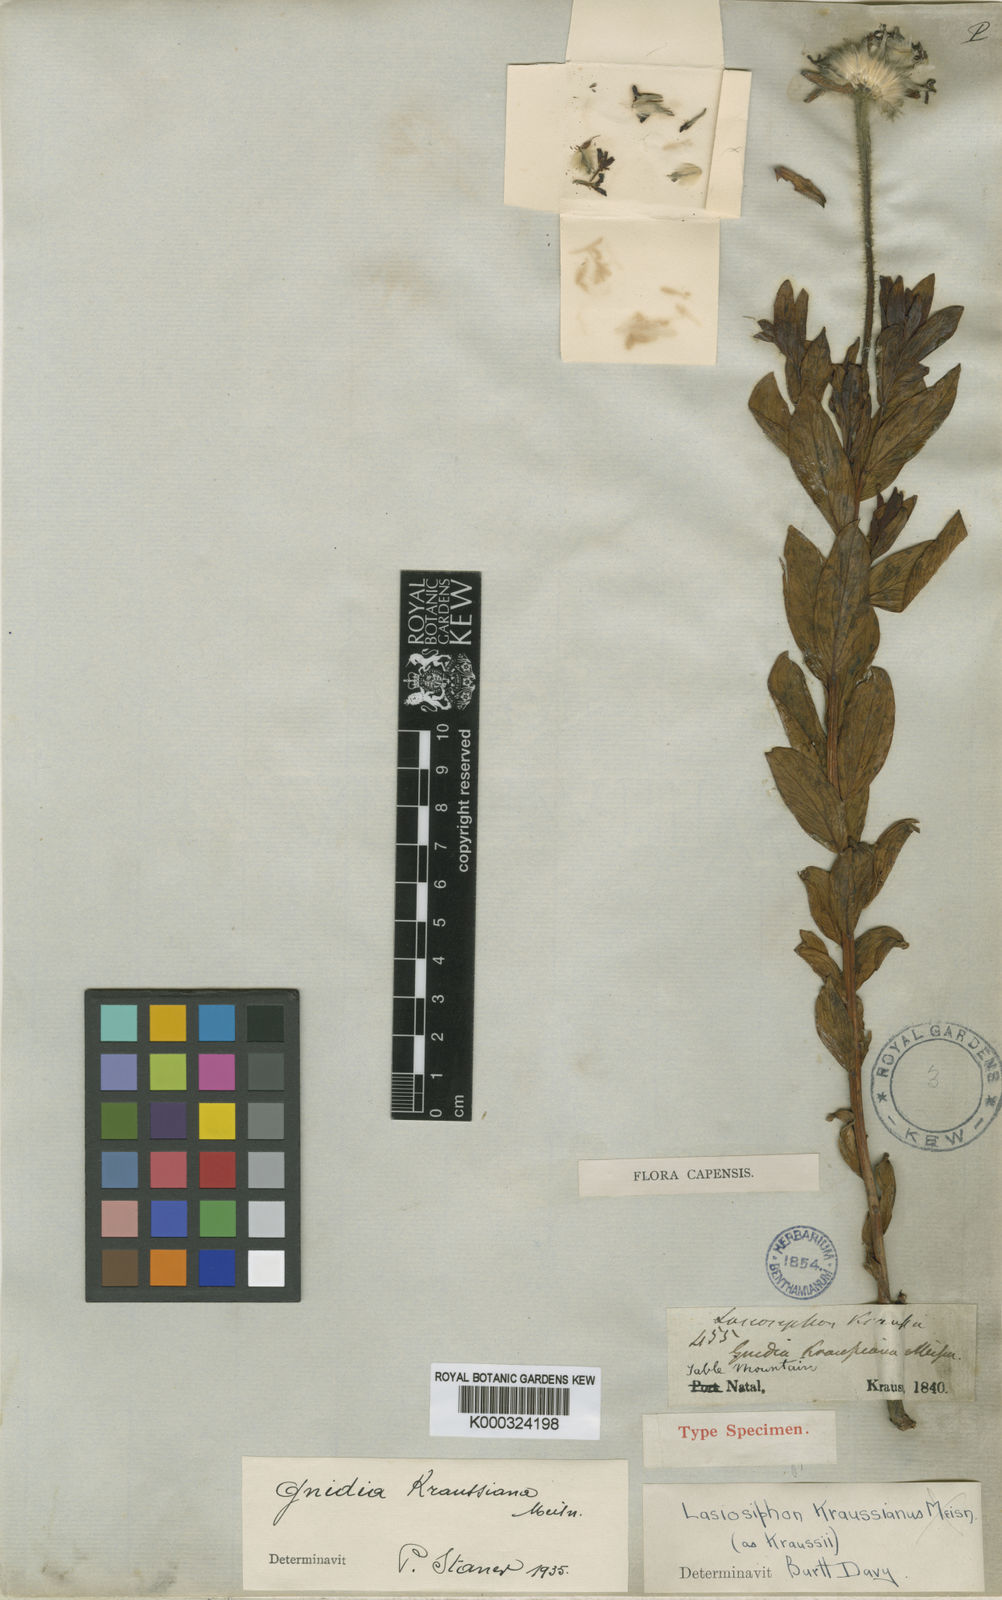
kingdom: Plantae
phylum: Tracheophyta
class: Magnoliopsida
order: Malvales
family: Thymelaeaceae
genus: Lasiosiphon
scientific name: Lasiosiphon
